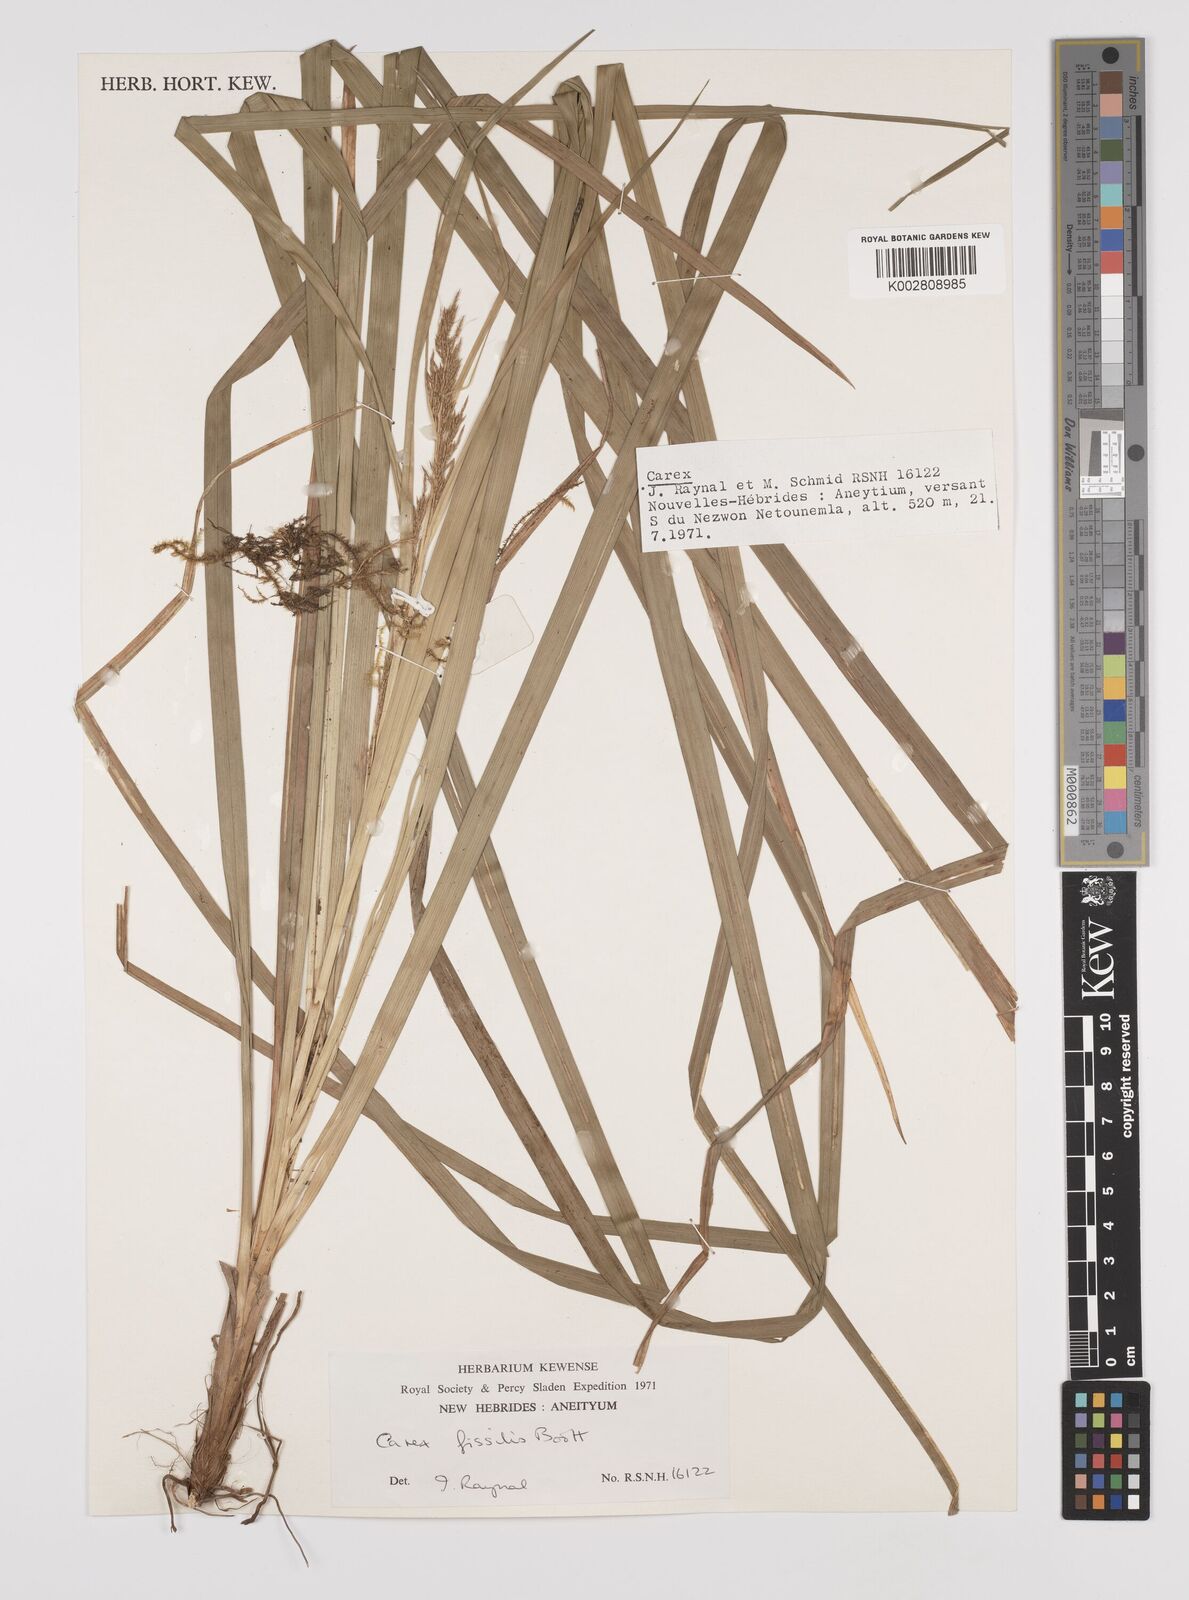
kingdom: Plantae
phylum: Tracheophyta
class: Liliopsida
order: Poales
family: Cyperaceae
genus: Carex
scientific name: Carex indica
